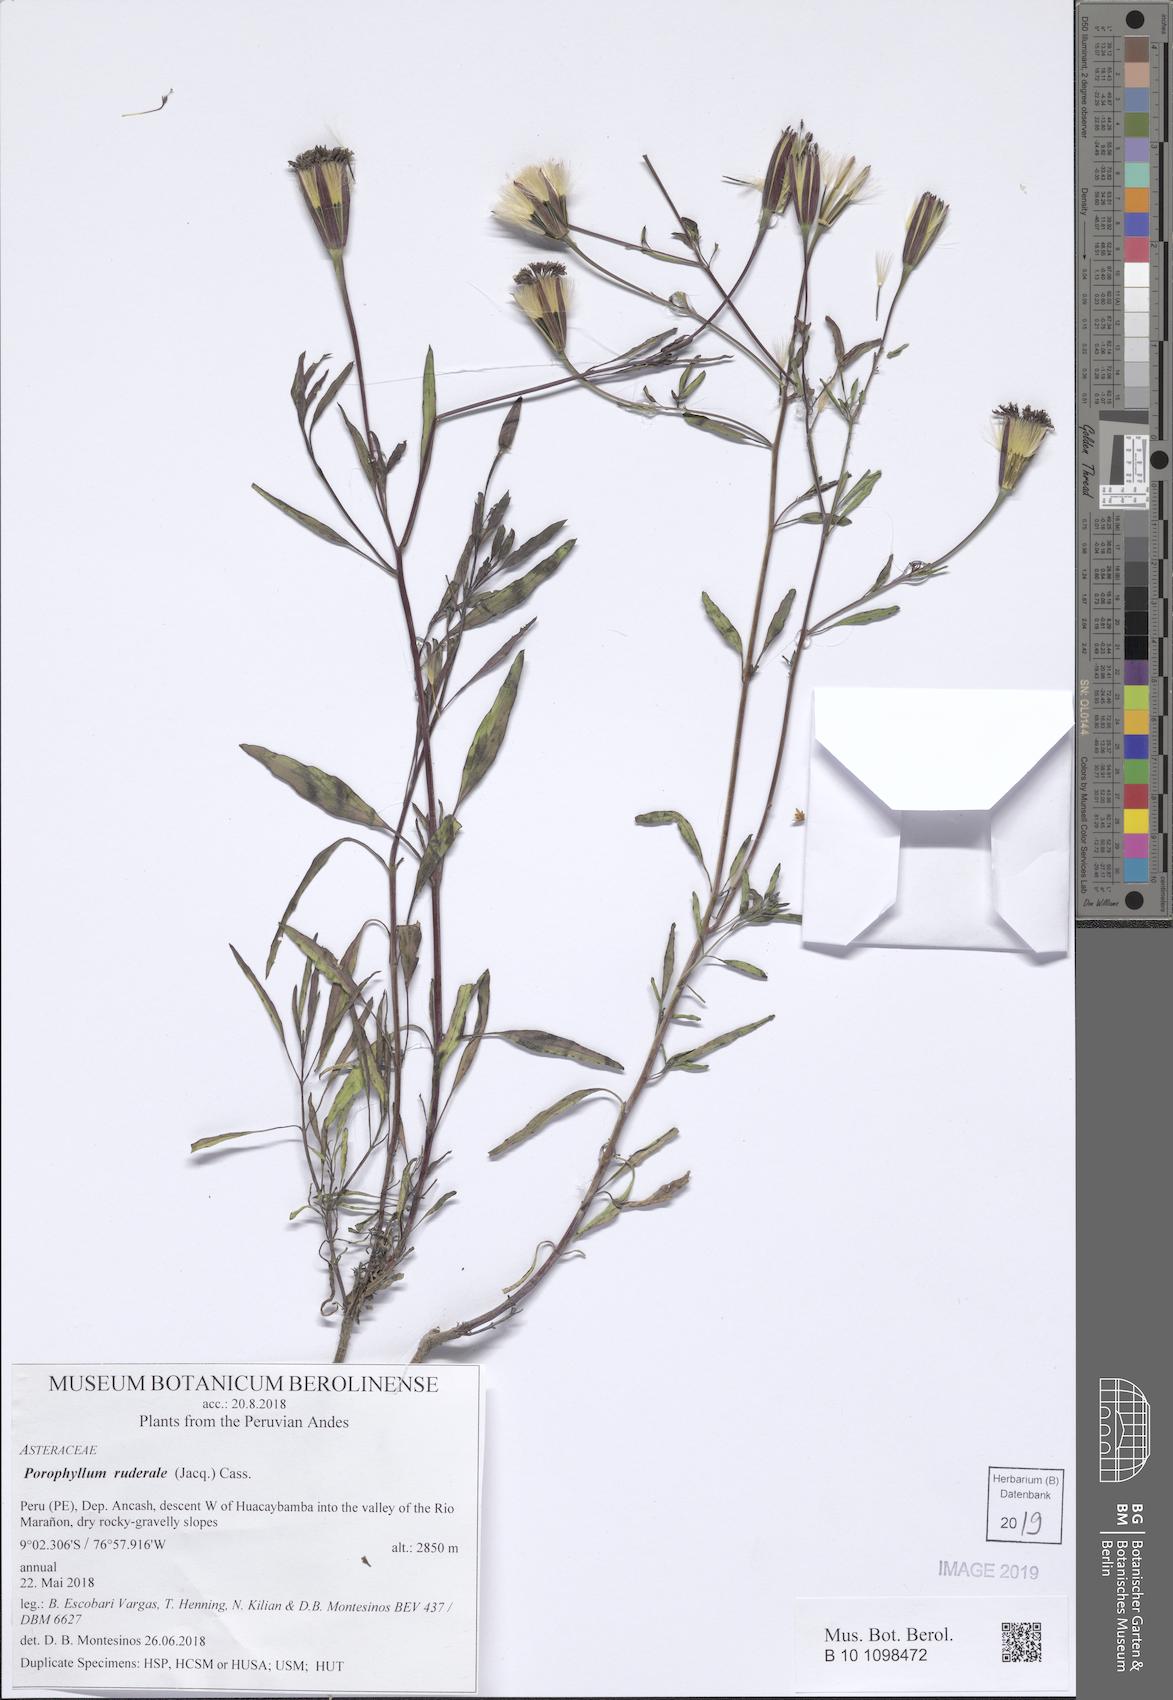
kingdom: Plantae
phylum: Tracheophyta
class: Magnoliopsida
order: Asterales
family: Asteraceae
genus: Porophyllum
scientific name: Porophyllum ruderale
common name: Yerba porosa
